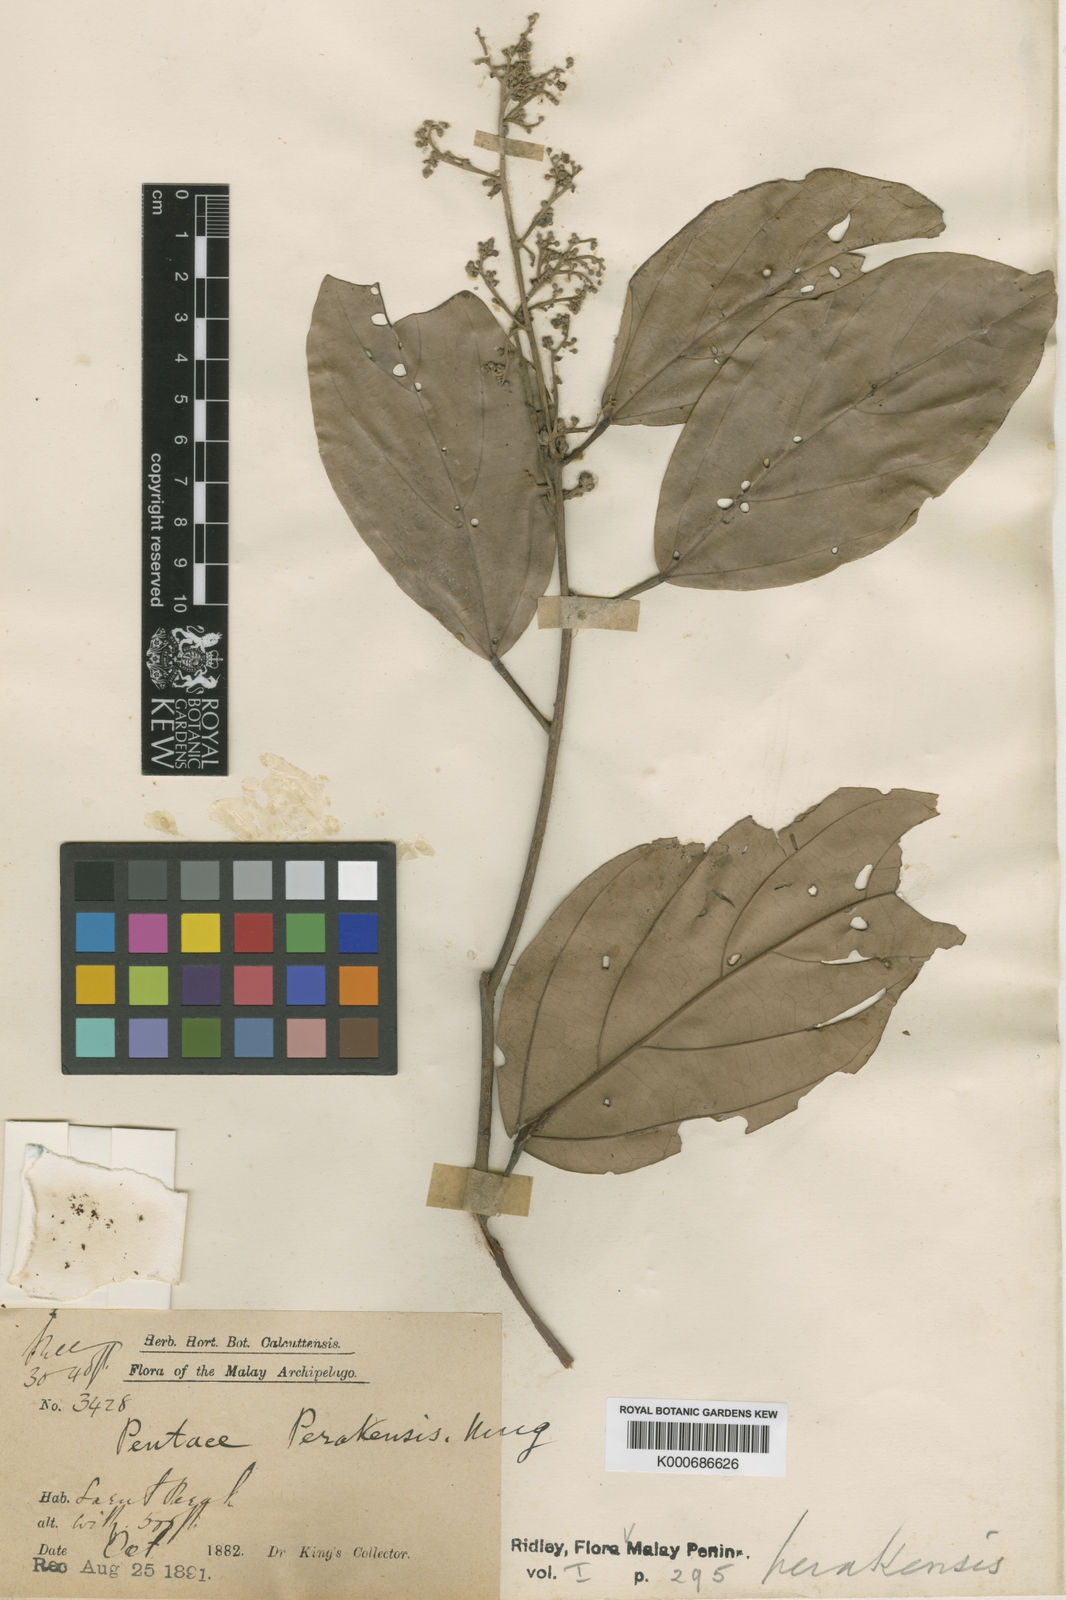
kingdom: Plantae
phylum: Tracheophyta
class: Magnoliopsida
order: Malvales
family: Malvaceae
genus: Pentace
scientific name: Pentace perakensis
